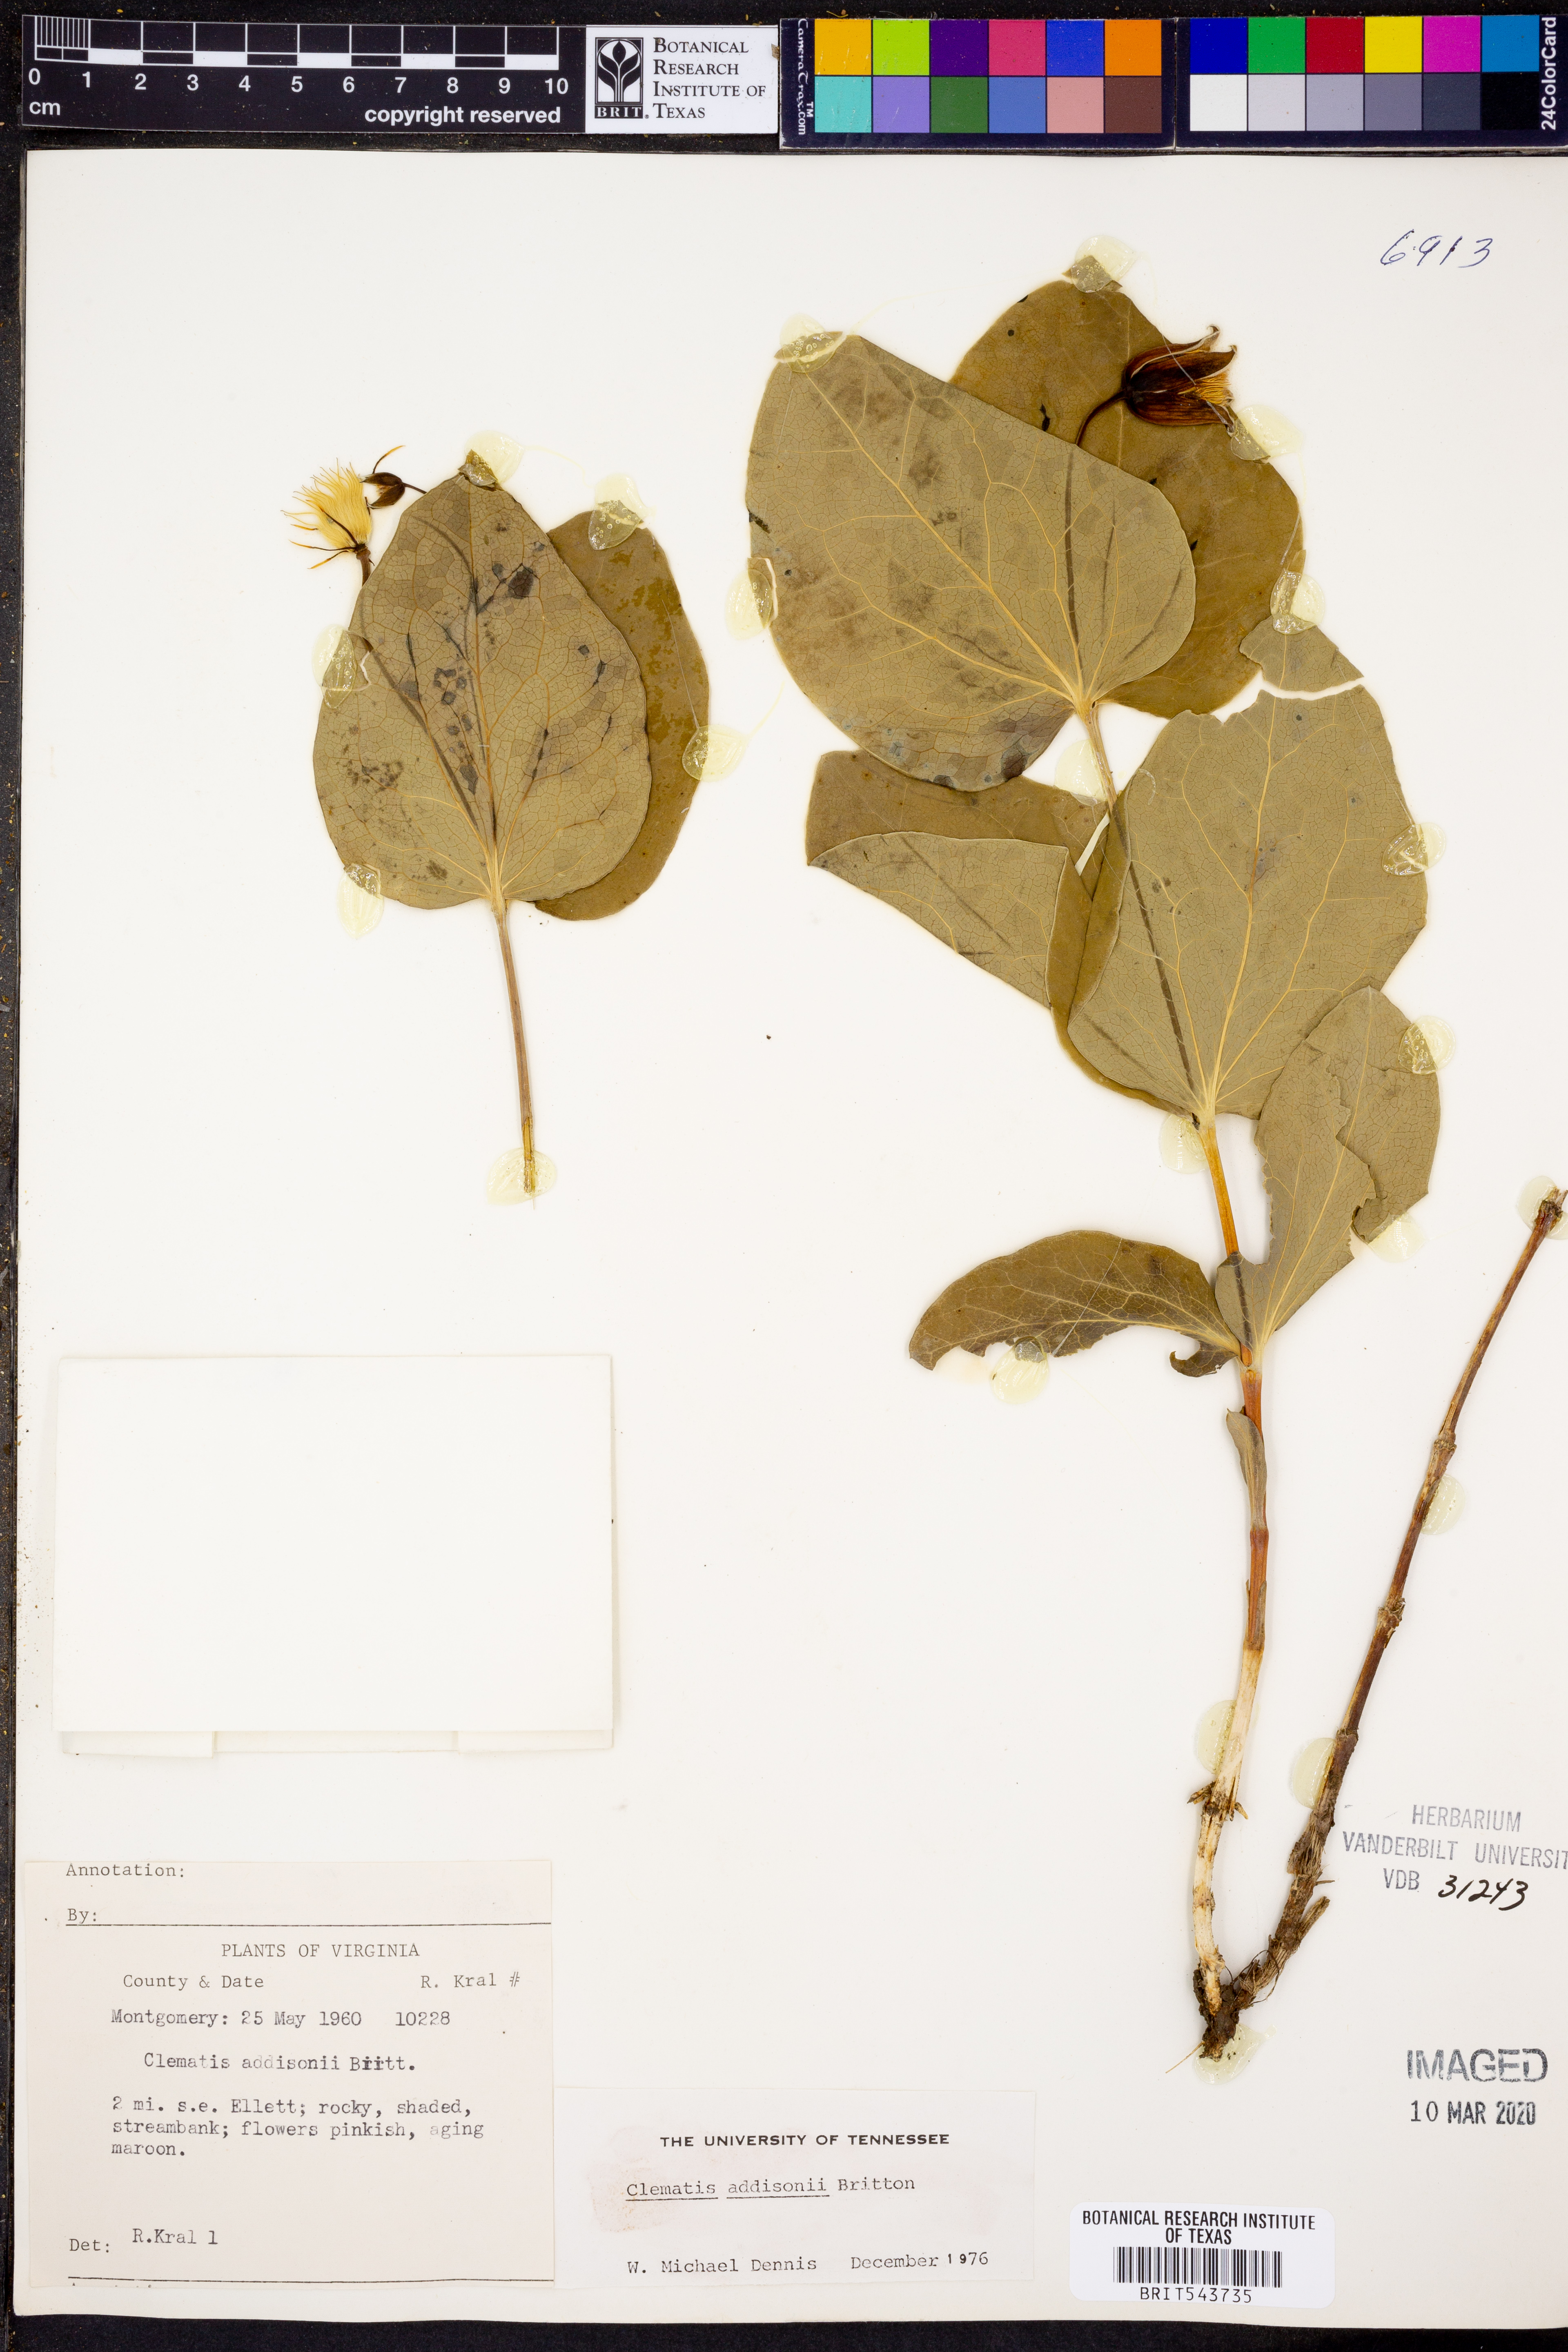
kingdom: Plantae
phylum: Tracheophyta
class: Magnoliopsida
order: Ranunculales
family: Ranunculaceae
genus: Clematis
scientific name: Clematis addisonii
